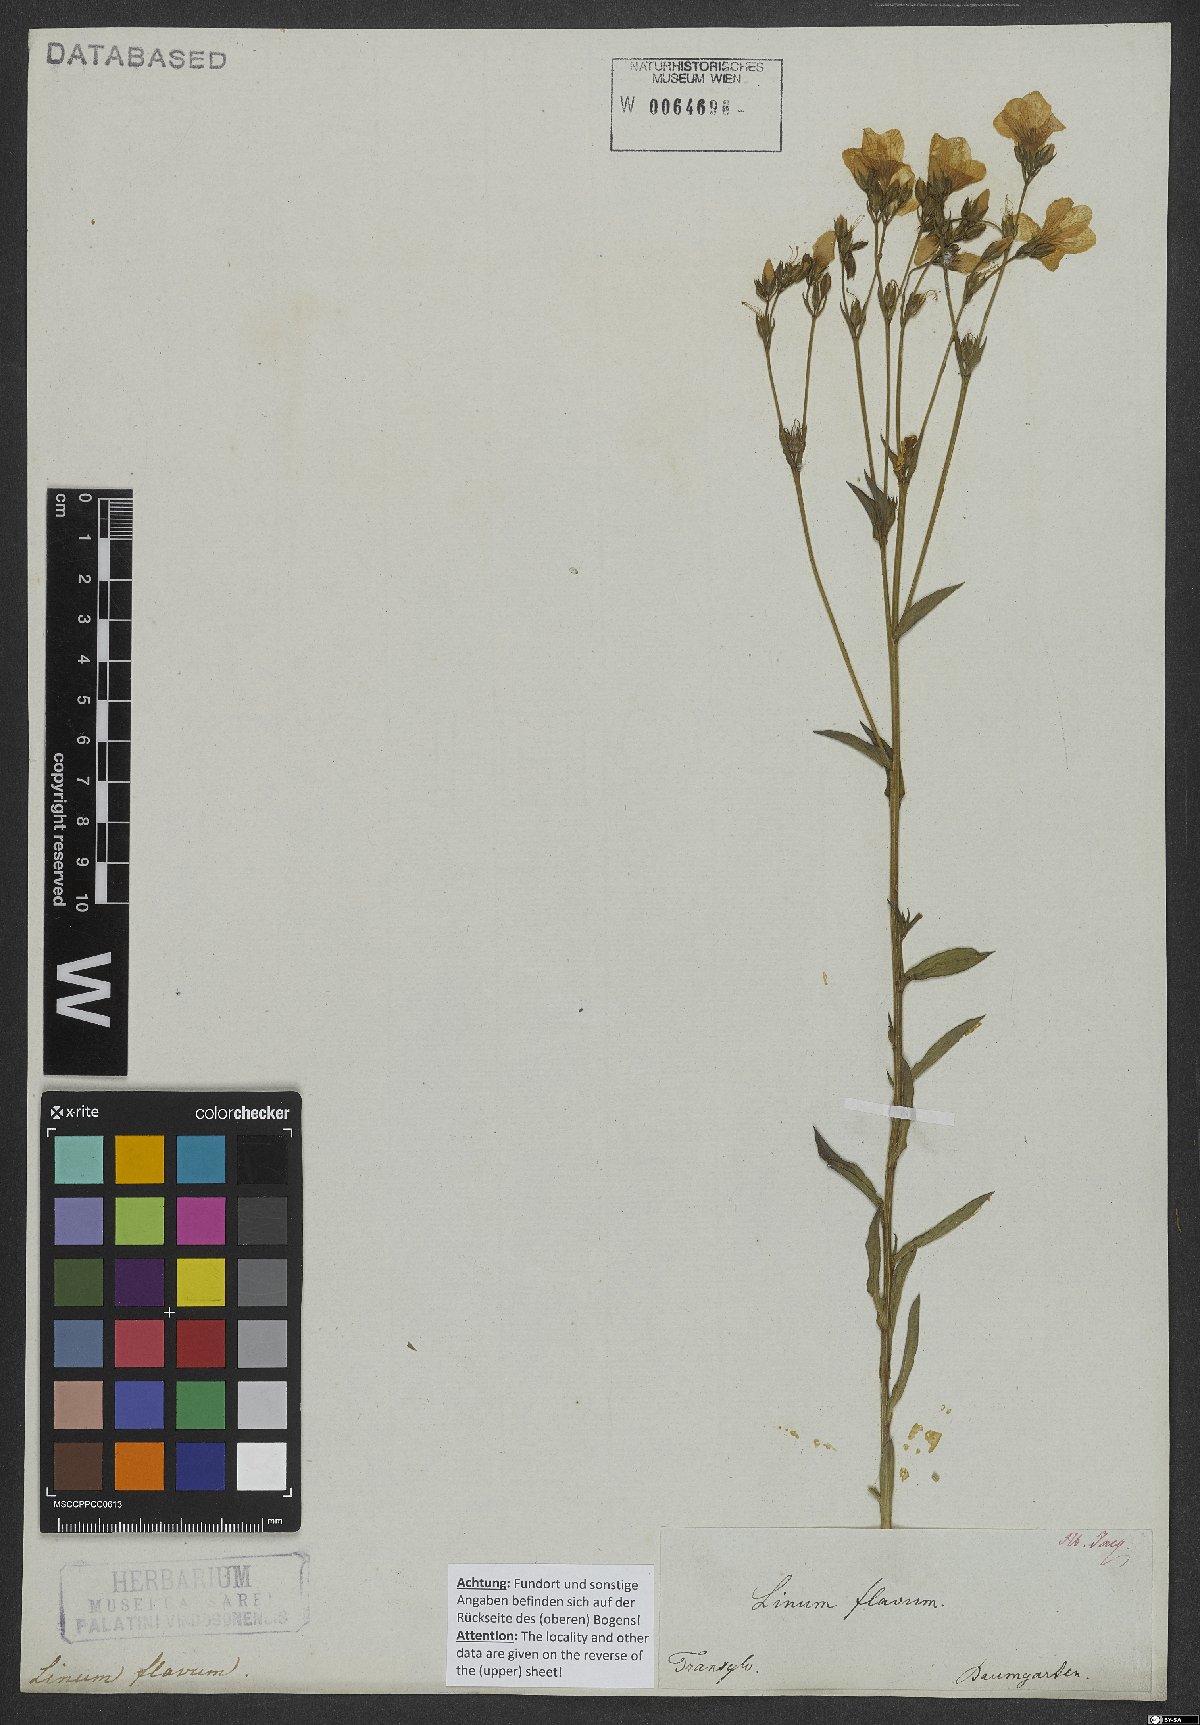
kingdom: Plantae
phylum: Tracheophyta
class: Magnoliopsida
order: Malpighiales
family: Linaceae
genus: Linum
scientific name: Linum flavum
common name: Yellow flax
